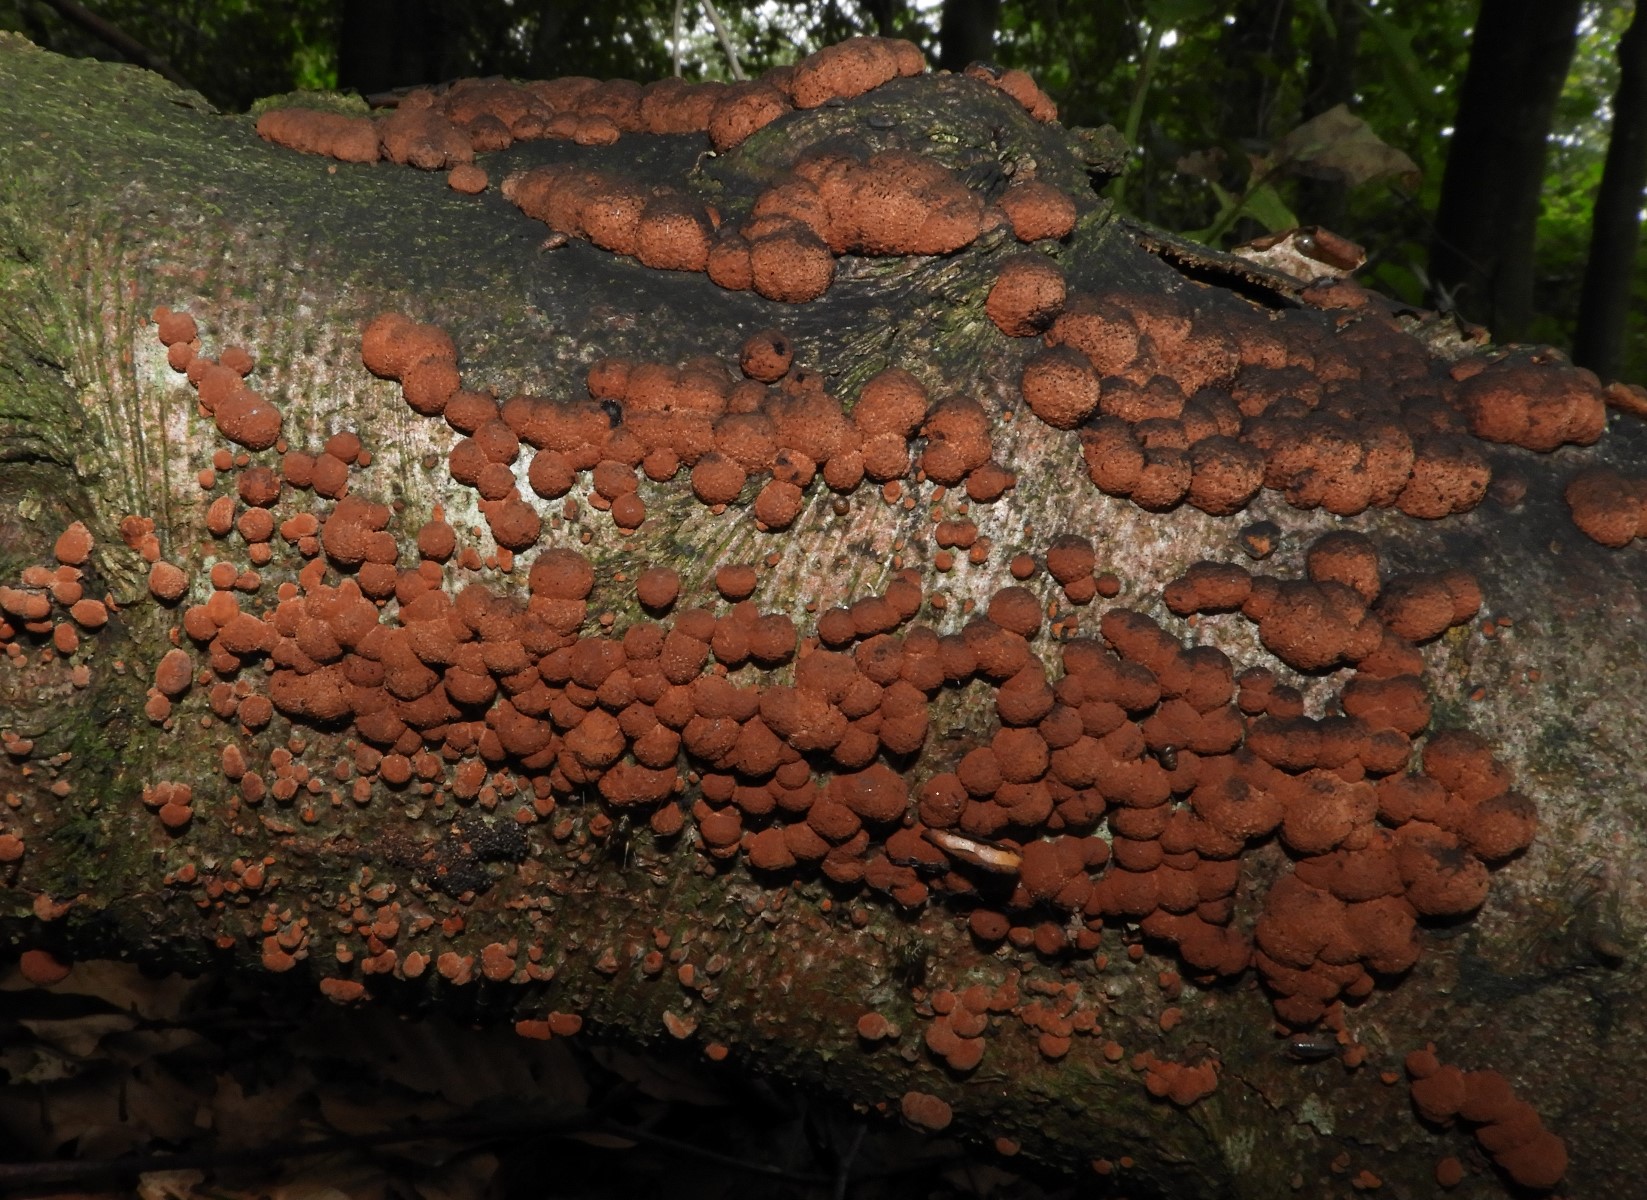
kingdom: Fungi
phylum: Ascomycota
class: Sordariomycetes
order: Xylariales
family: Hypoxylaceae
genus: Hypoxylon
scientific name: Hypoxylon fragiforme
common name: kuljordbær
